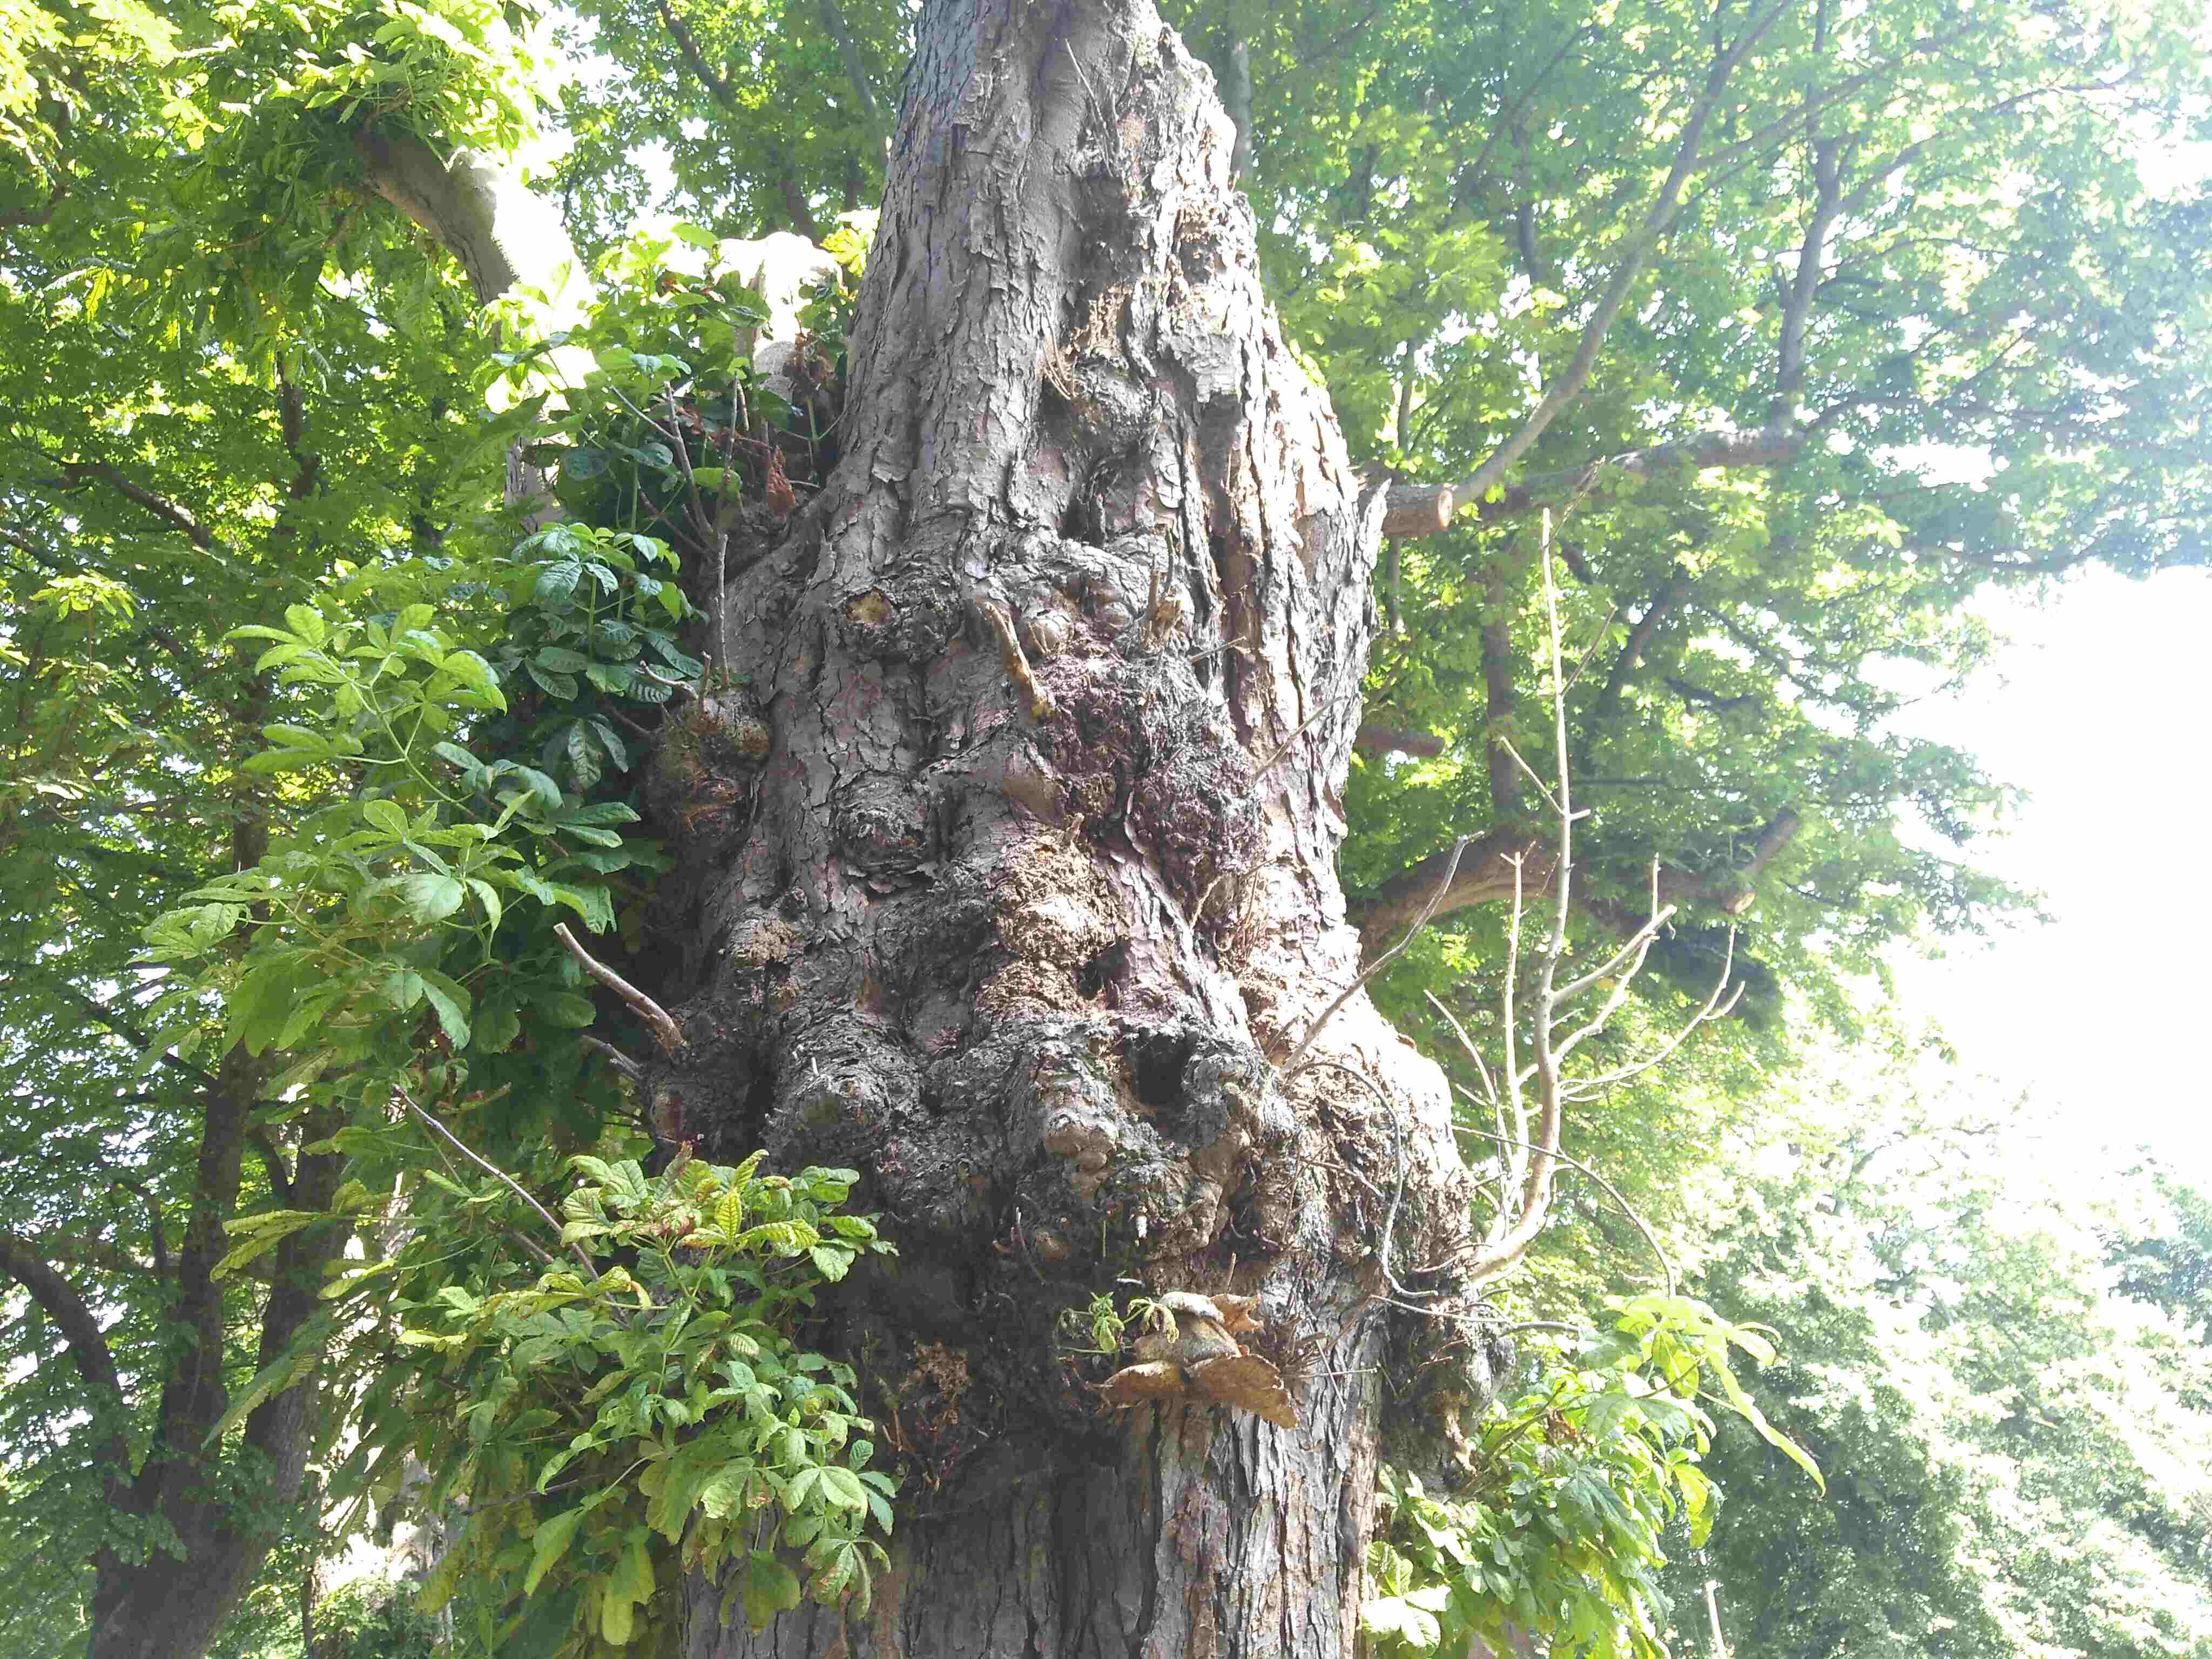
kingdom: Fungi
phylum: Basidiomycota
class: Agaricomycetes
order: Polyporales
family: Polyporaceae
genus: Cerioporus
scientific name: Cerioporus squamosus
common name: skællet stilkporesvamp
